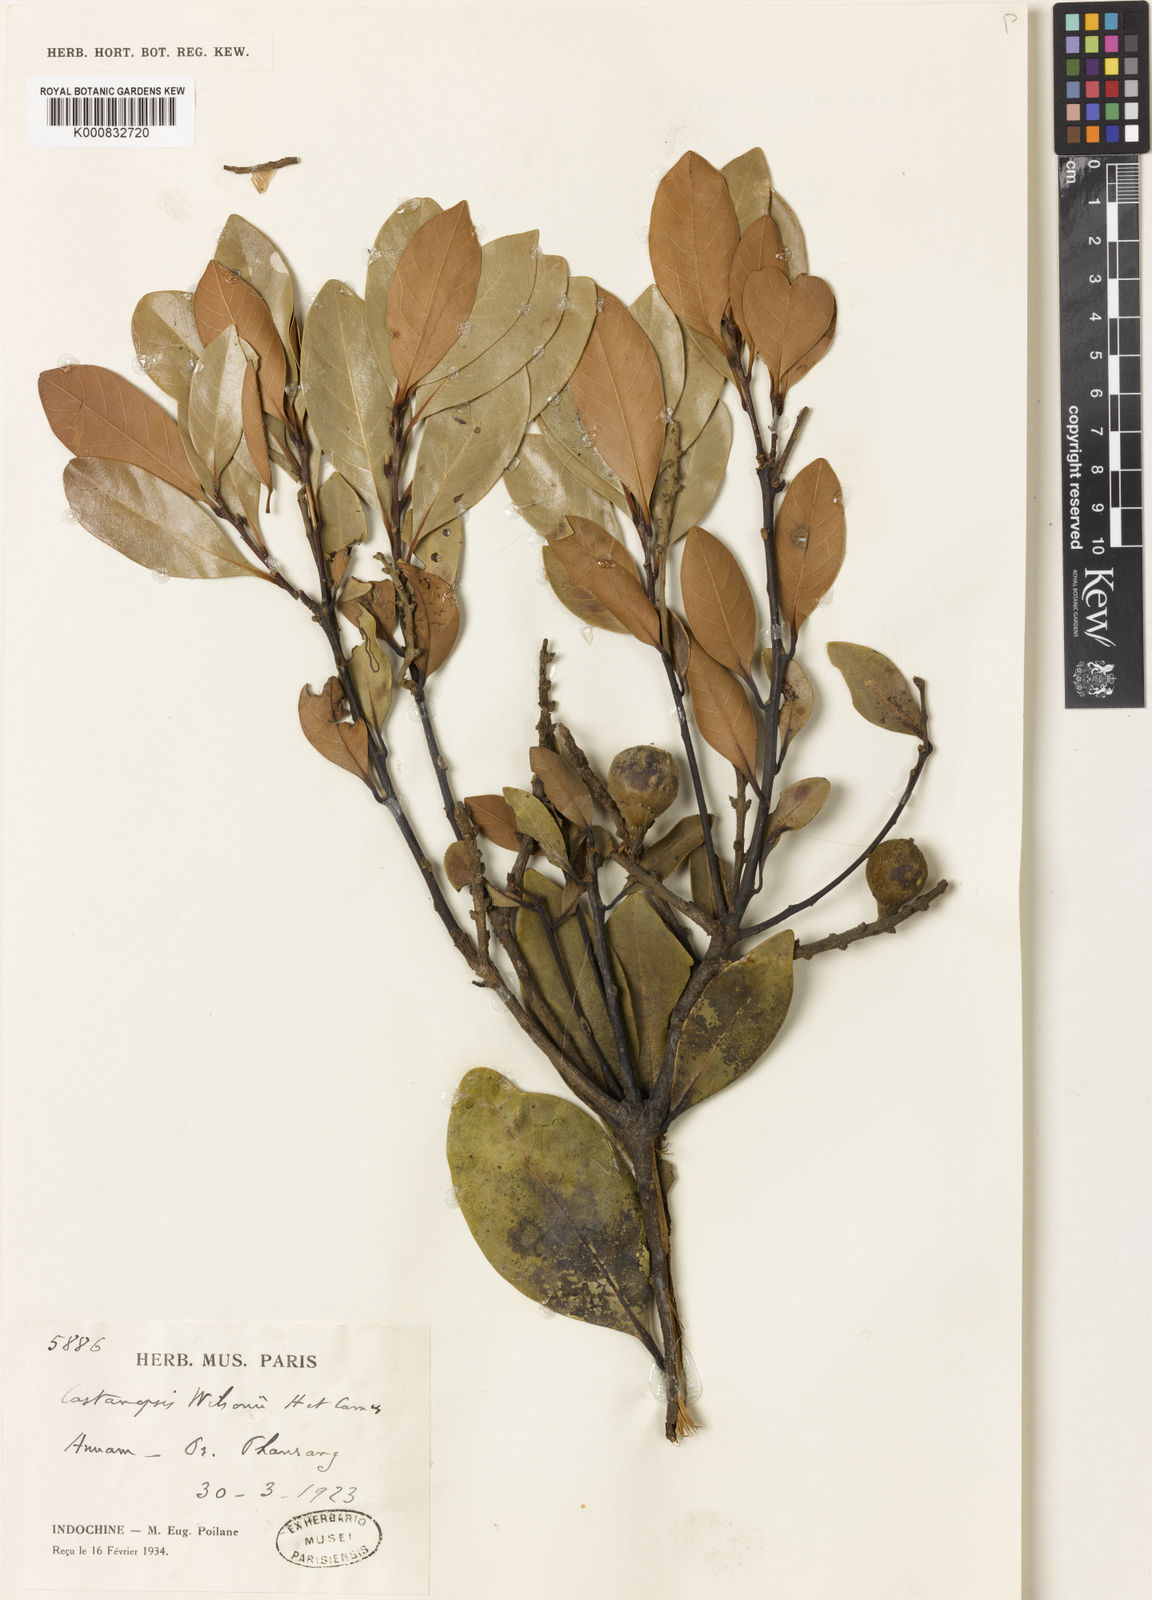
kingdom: Plantae
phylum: Tracheophyta
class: Magnoliopsida
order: Fagales
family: Fagaceae
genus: Castanopsis
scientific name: Castanopsis wilsonii
